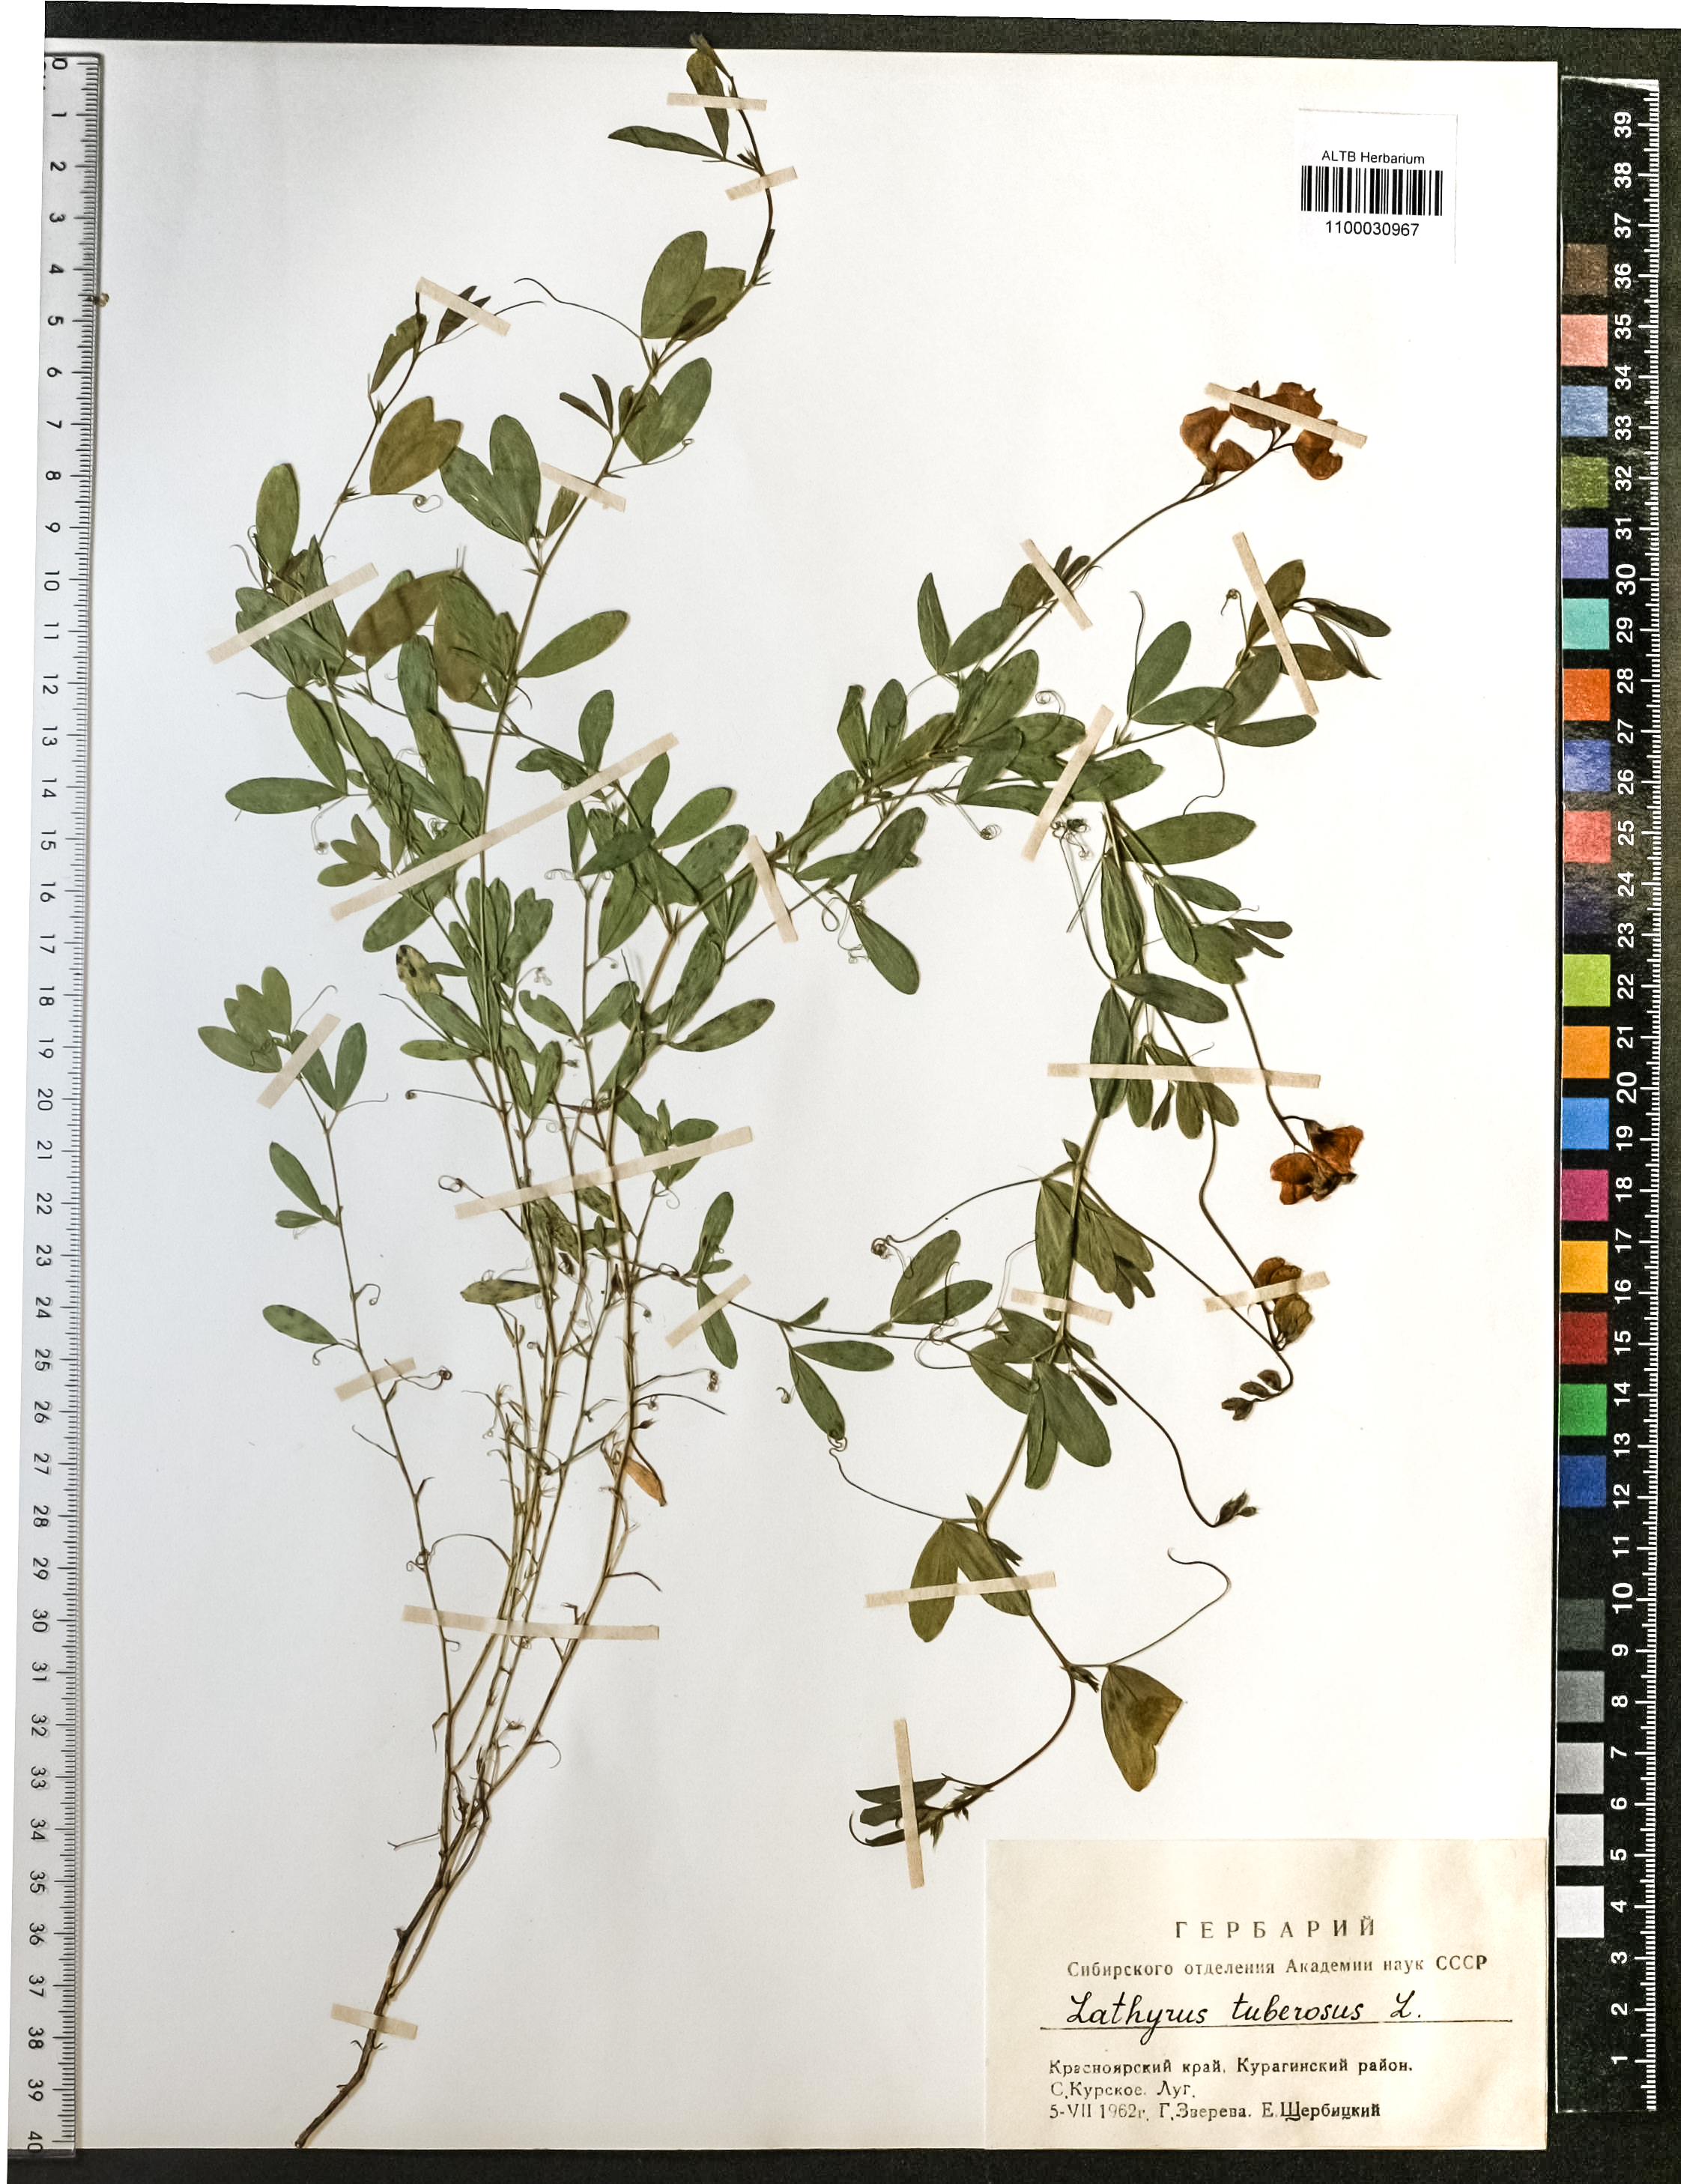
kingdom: Plantae
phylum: Tracheophyta
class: Magnoliopsida
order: Fabales
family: Fabaceae
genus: Lathyrus
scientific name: Lathyrus tuberosus
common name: Tuberous pea
